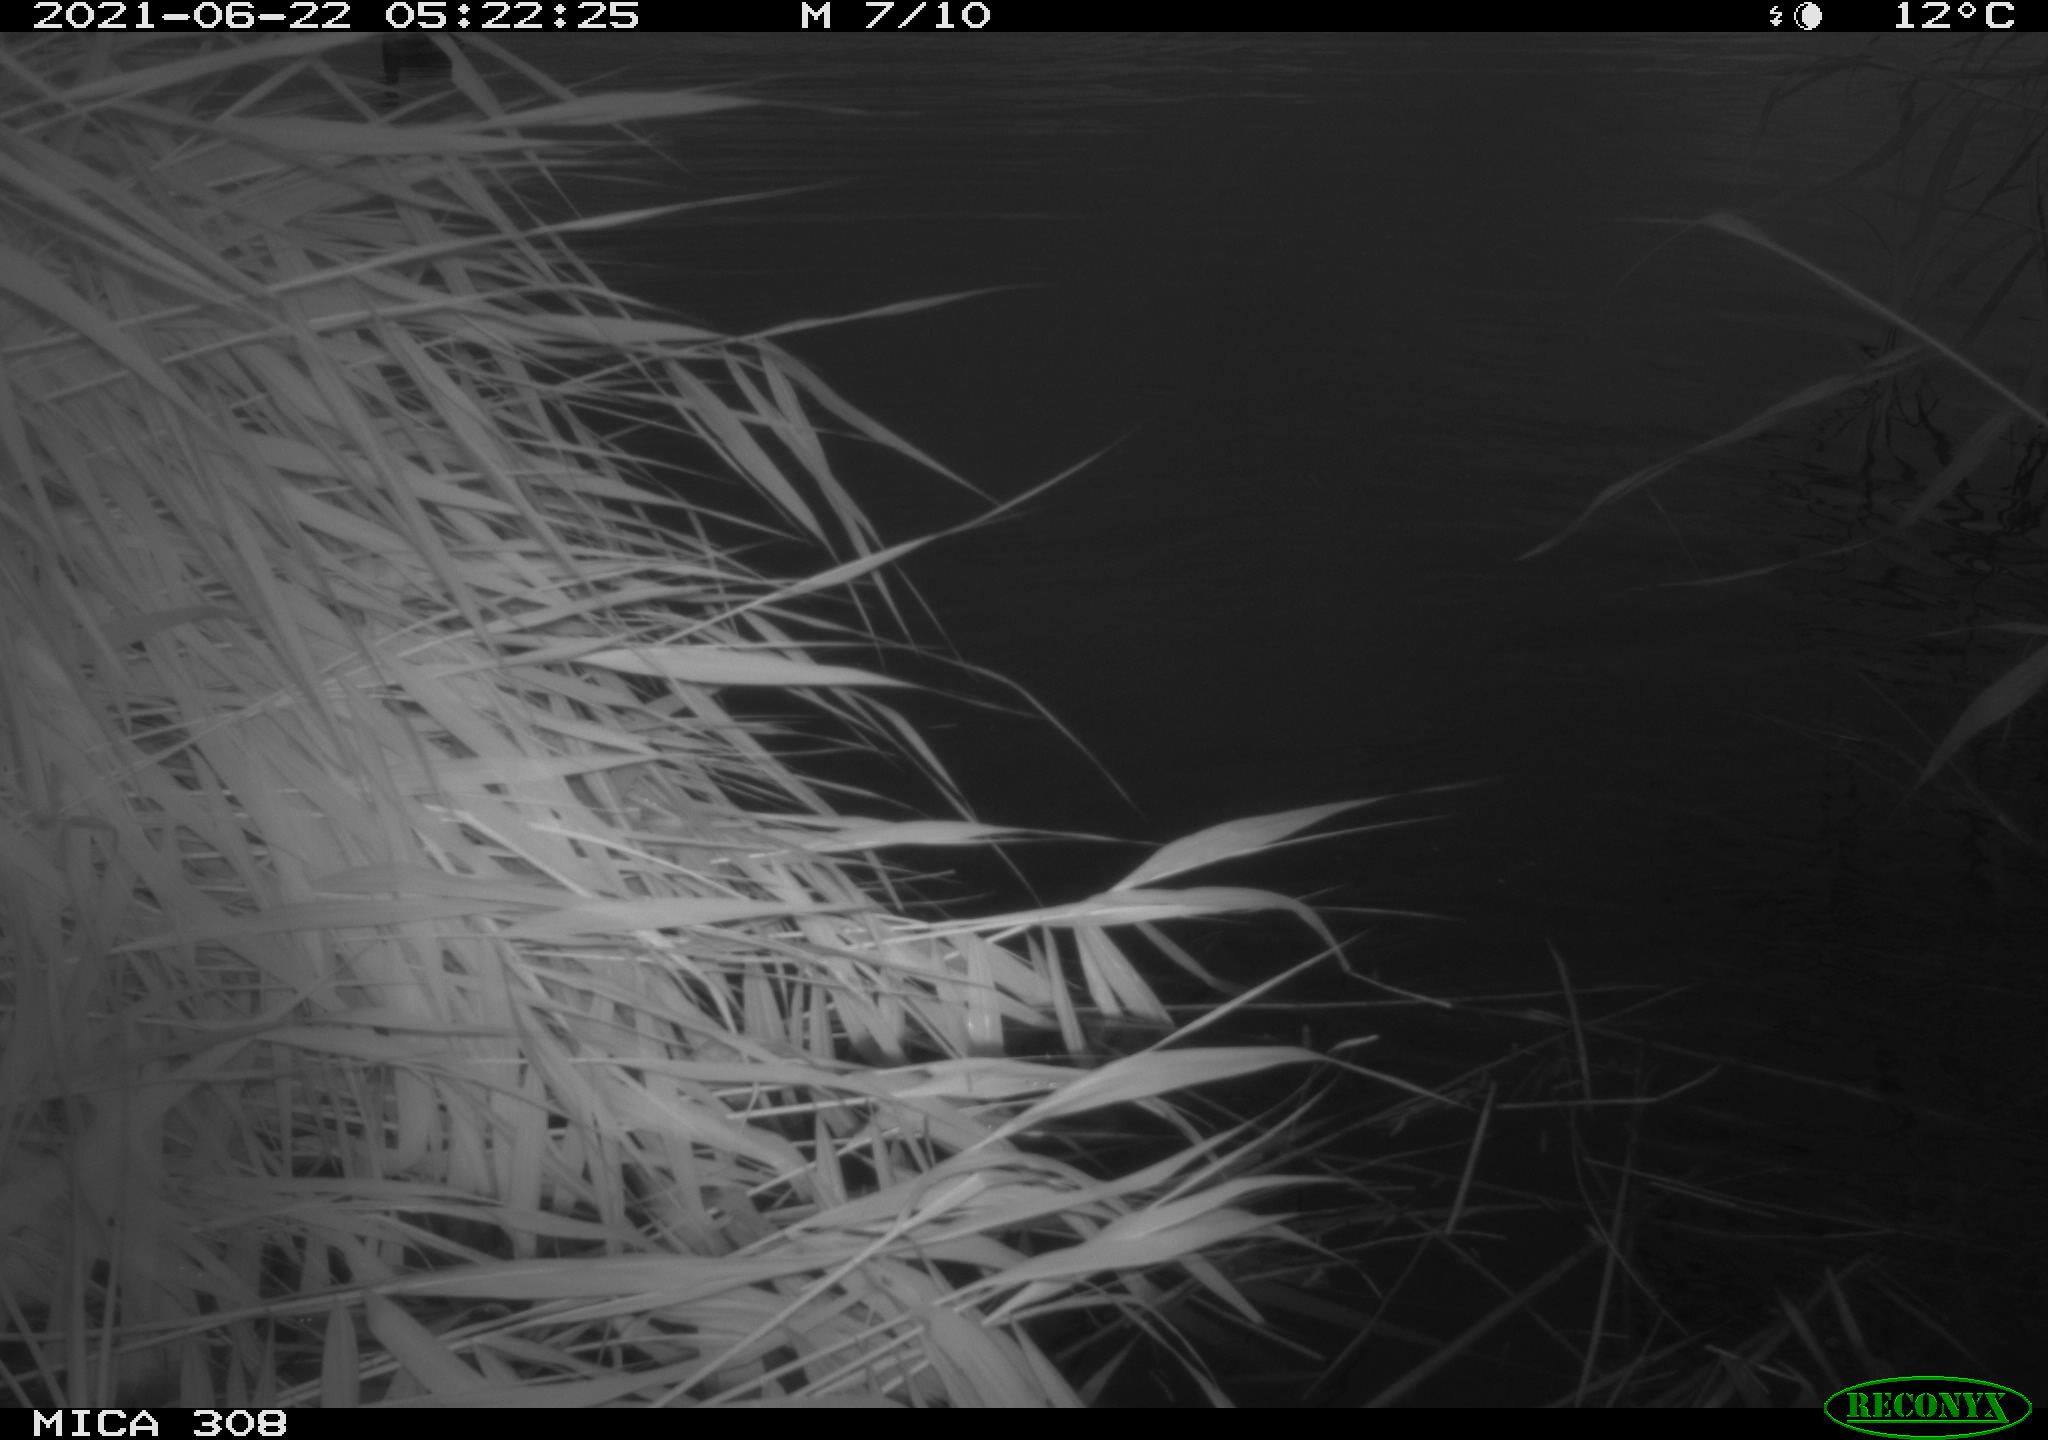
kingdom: Animalia
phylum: Chordata
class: Aves
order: Anseriformes
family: Anatidae
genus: Anas
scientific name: Anas platyrhynchos
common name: Mallard
